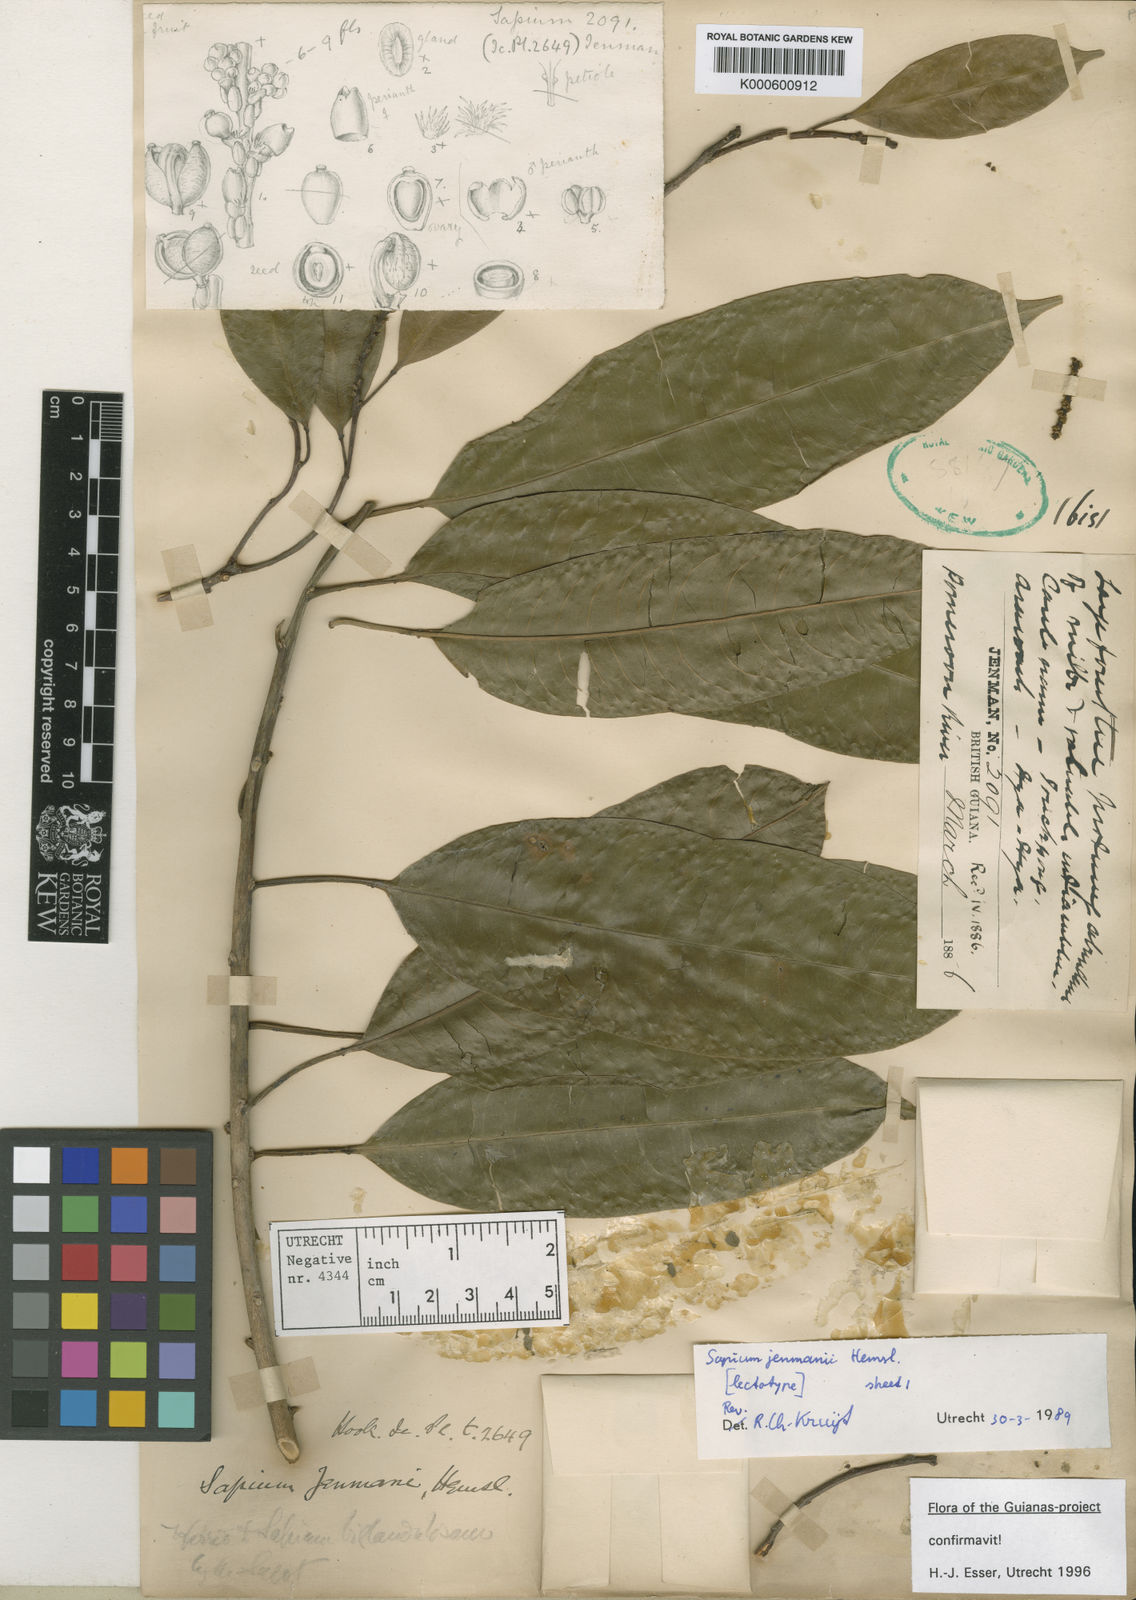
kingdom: Plantae
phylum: Tracheophyta
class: Magnoliopsida
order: Malpighiales
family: Euphorbiaceae
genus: Sapium
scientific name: Sapium jenmannii
